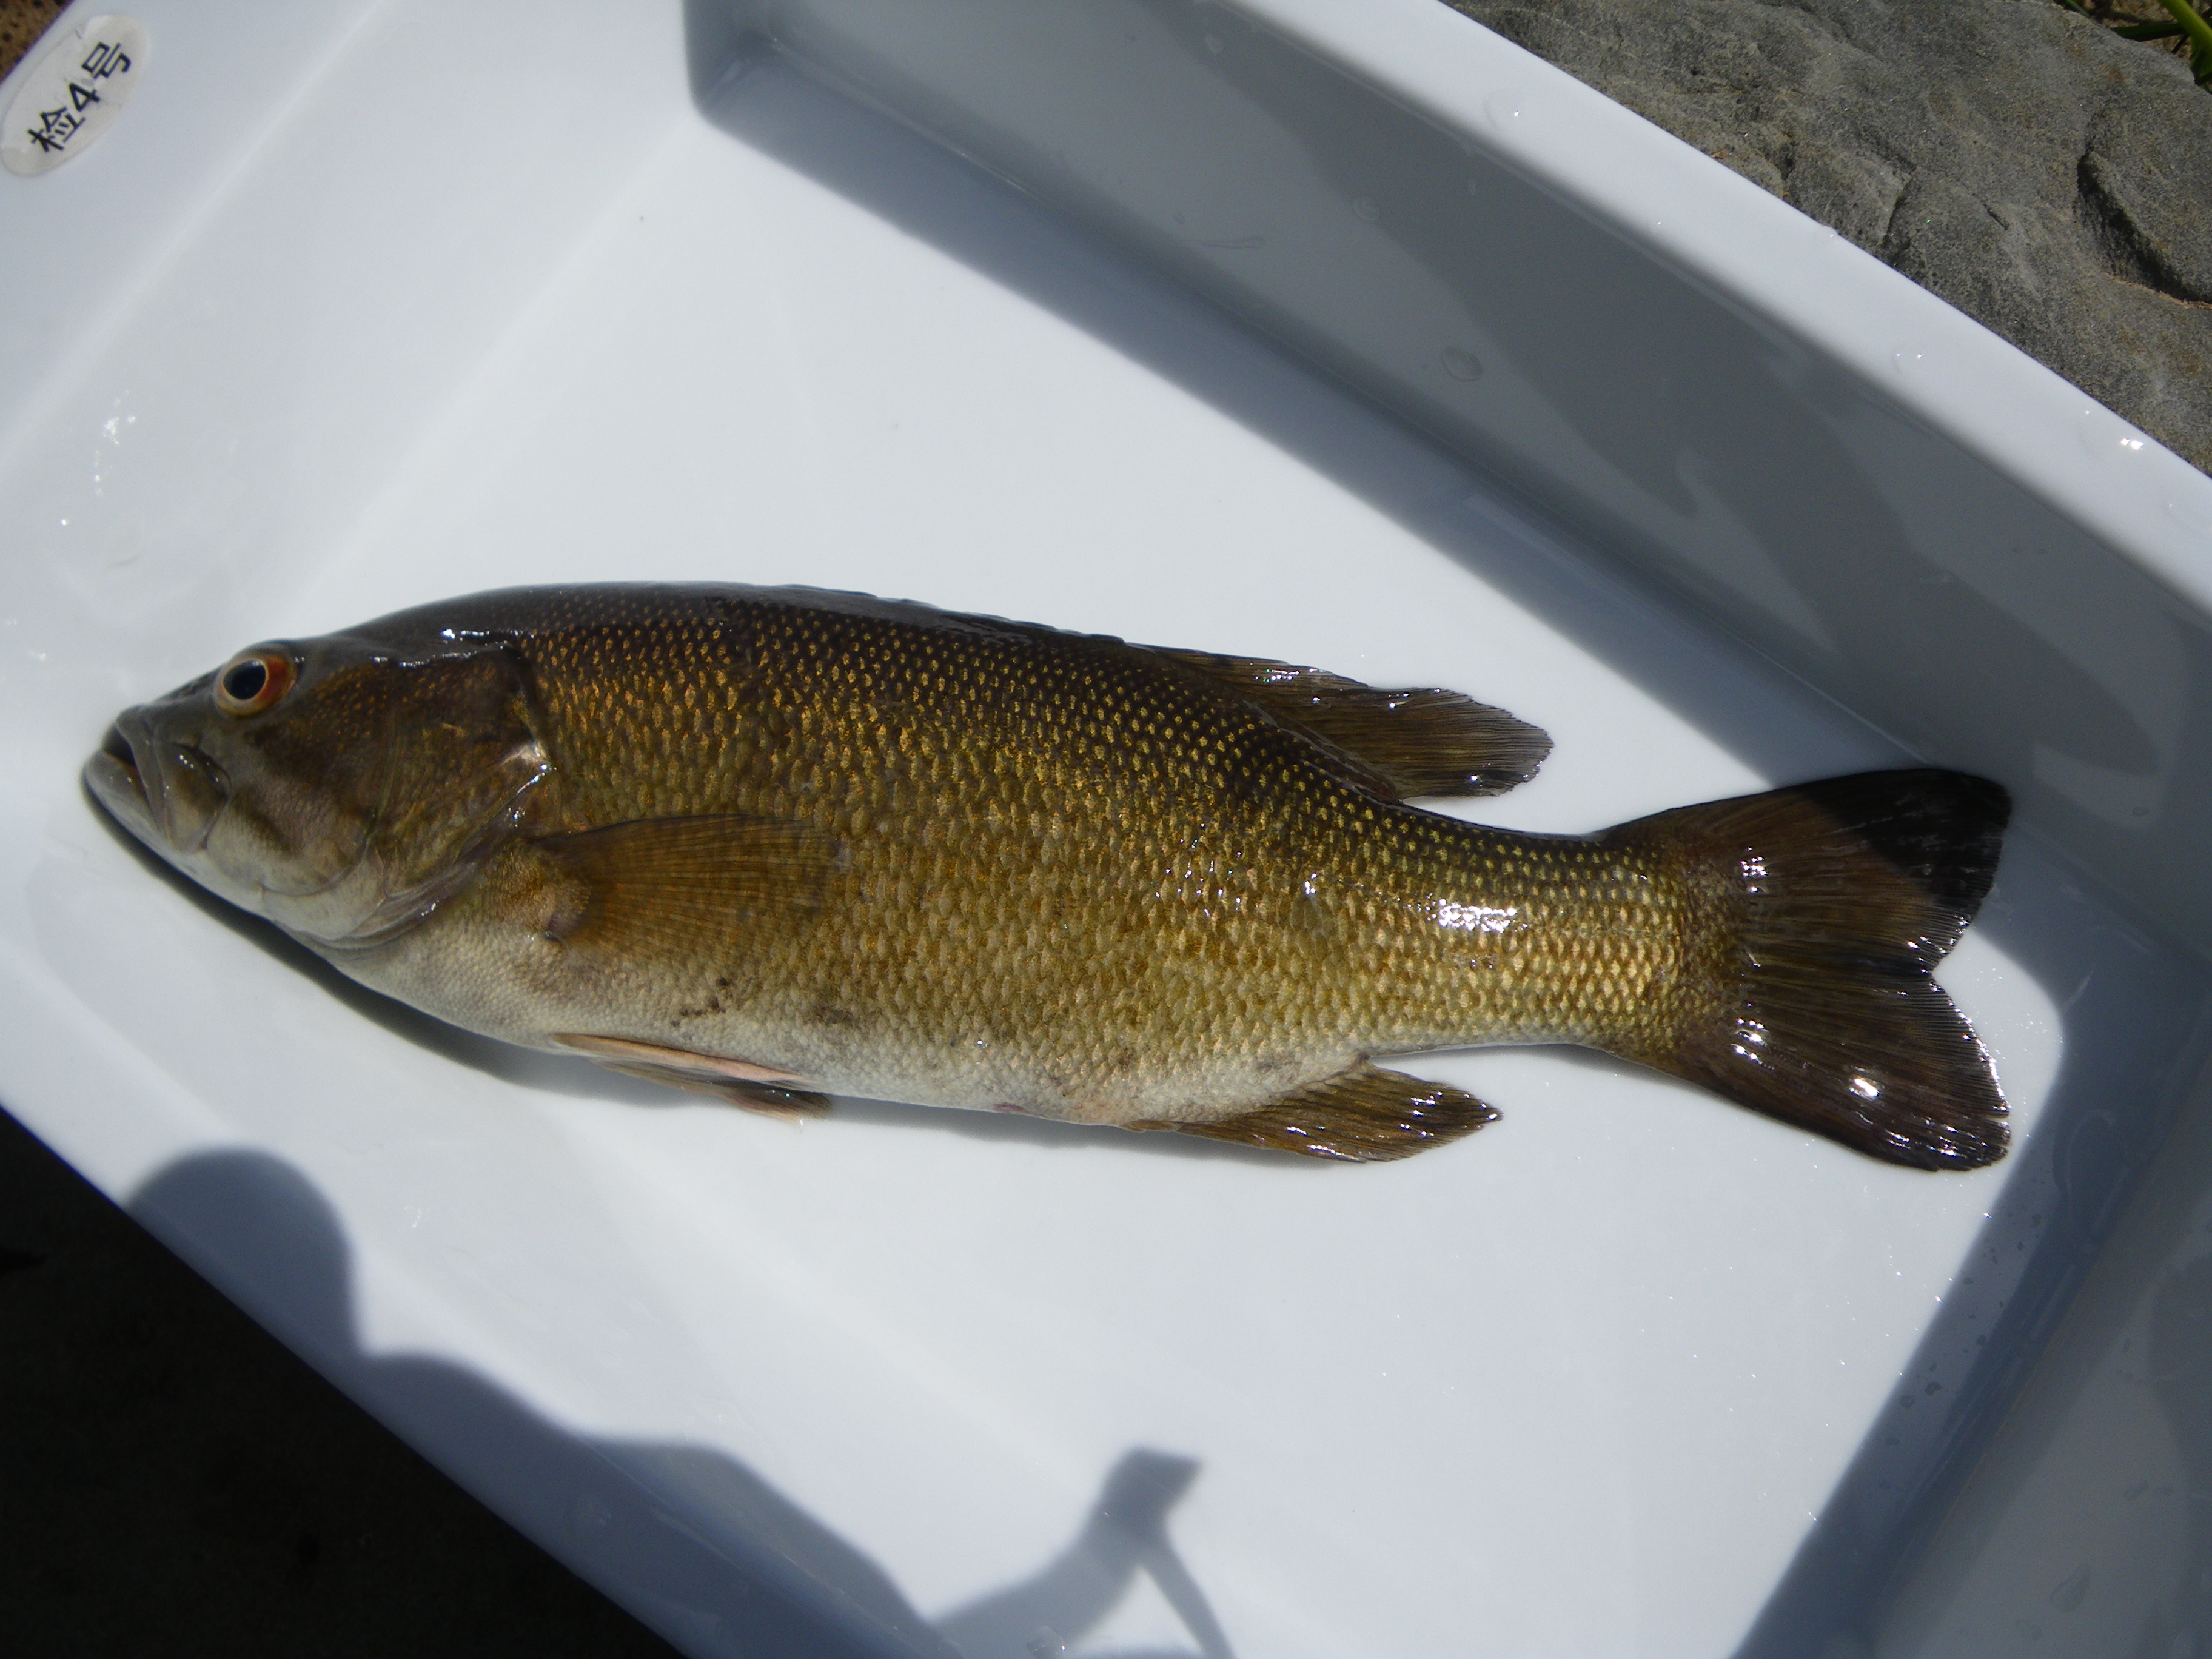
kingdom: Animalia
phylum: Chordata
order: Perciformes
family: Centrarchidae
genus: Micropterus
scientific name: Micropterus punctulatus
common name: Spotted bass
